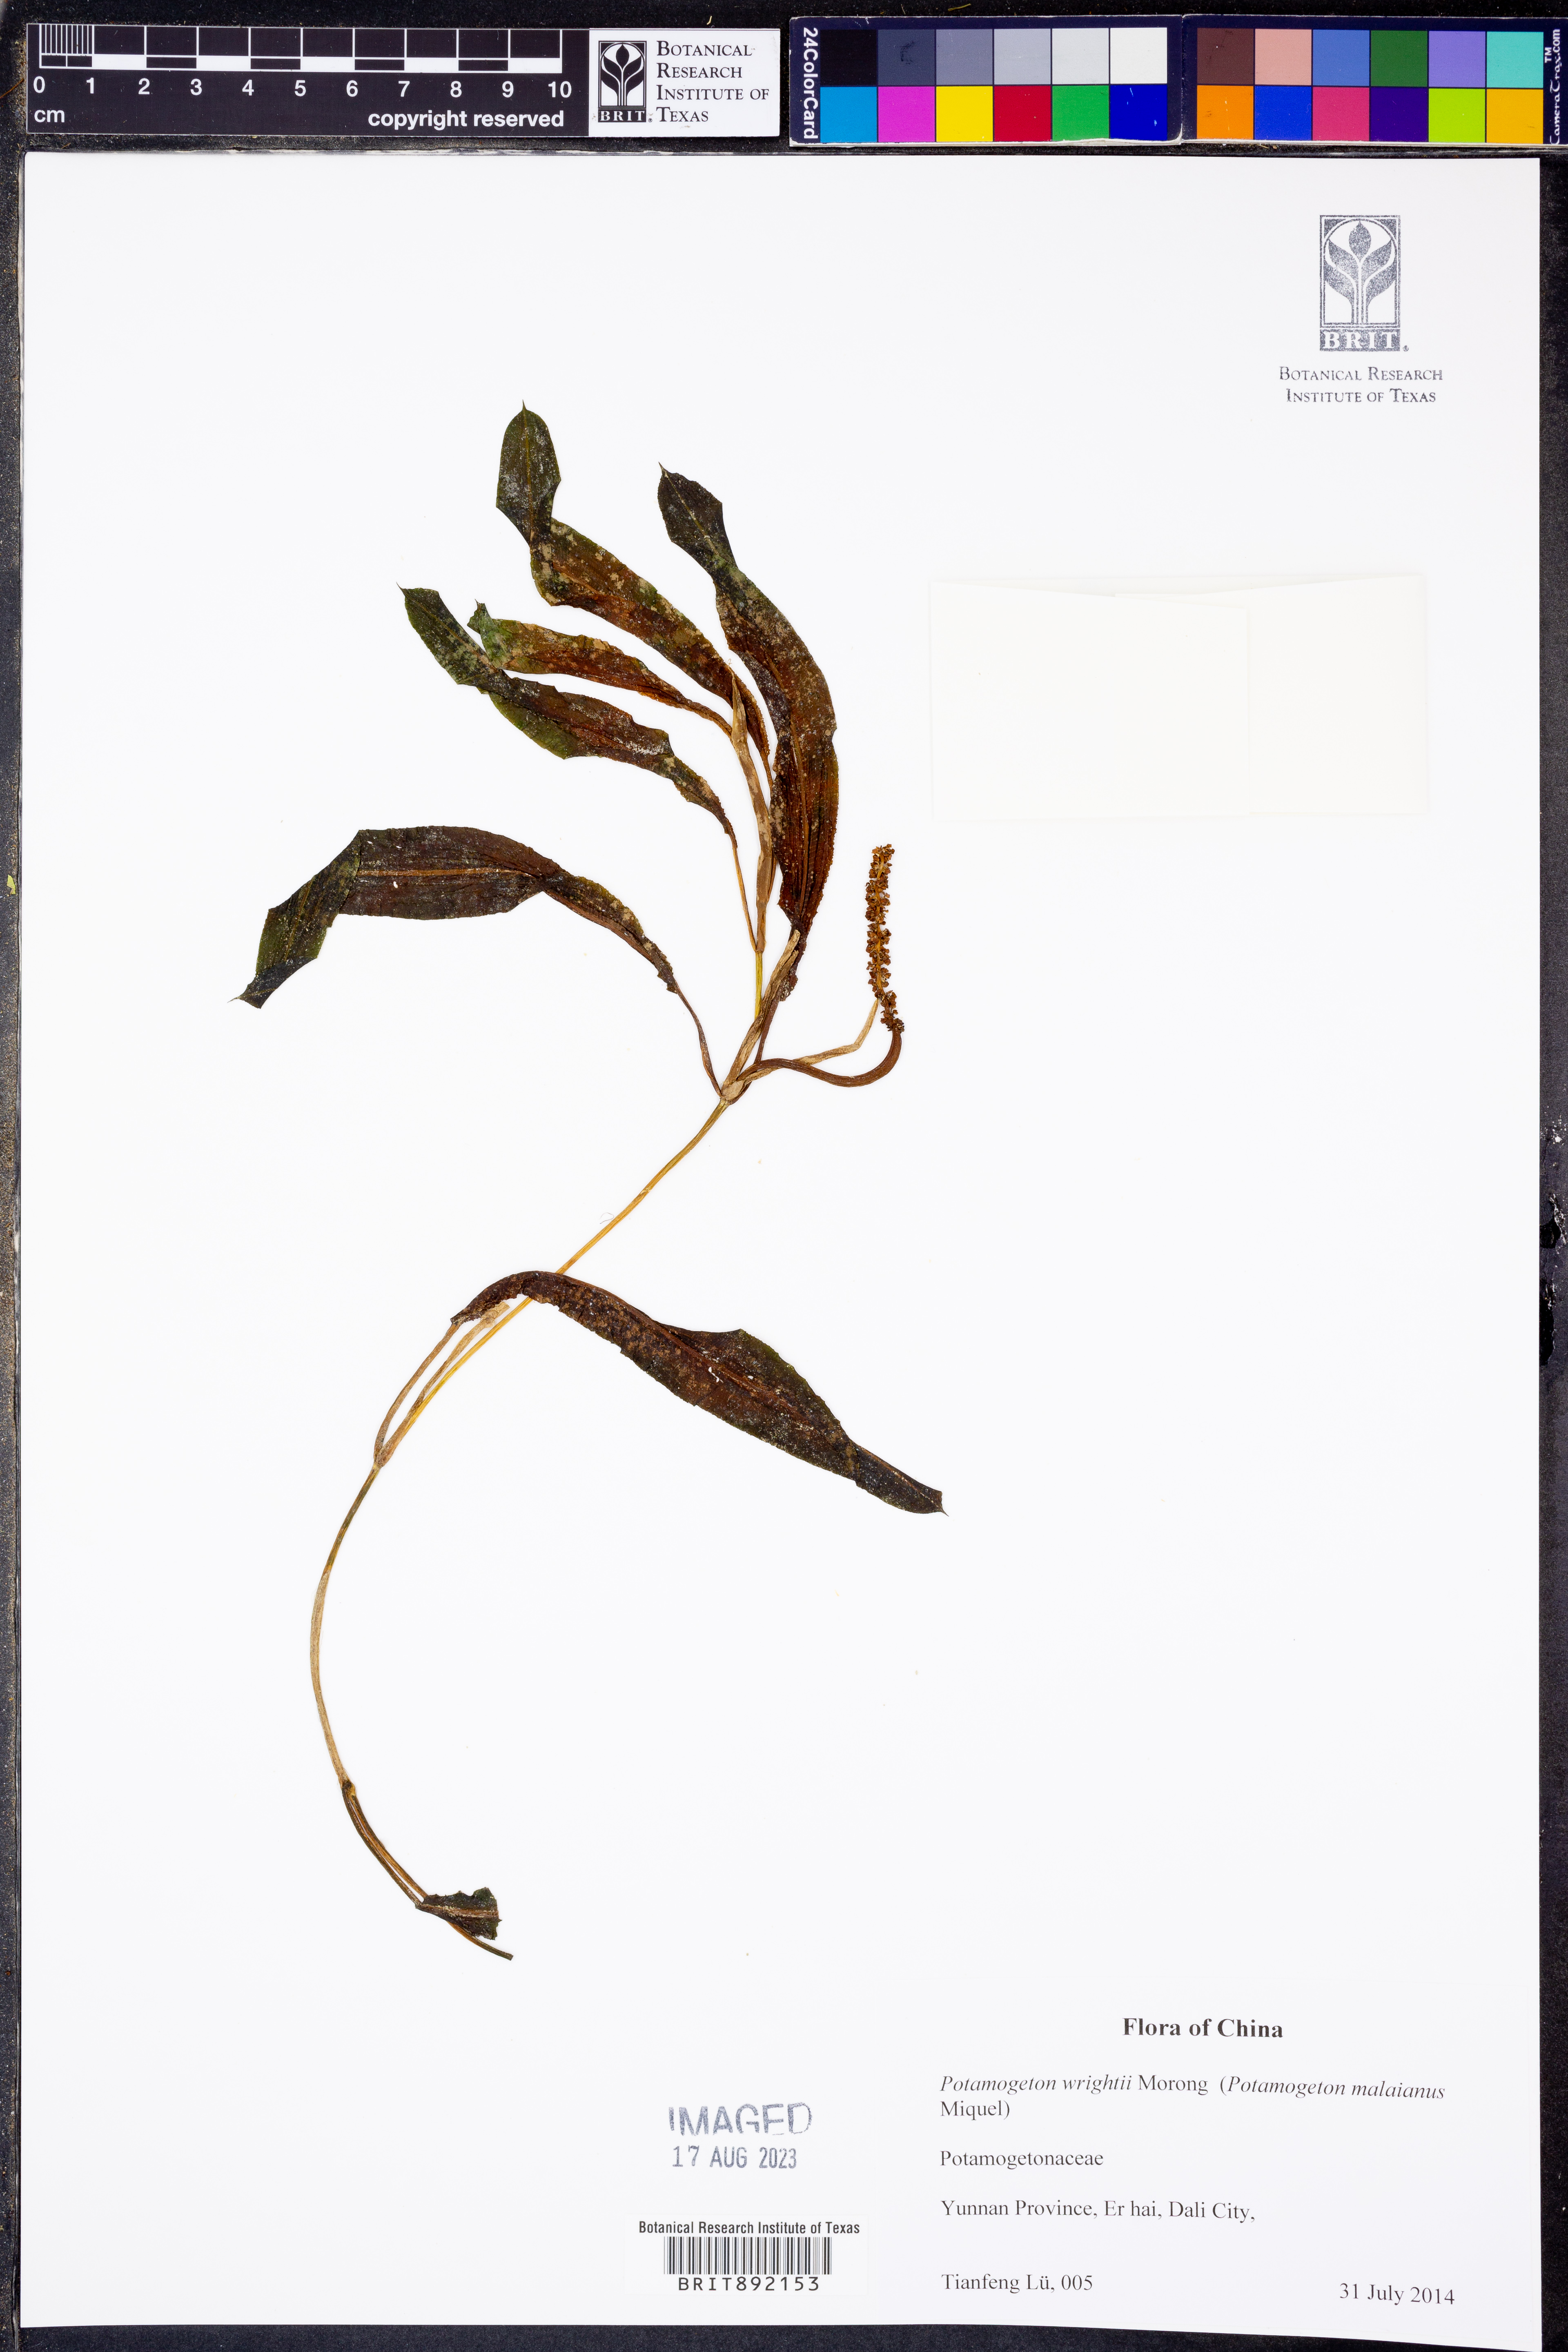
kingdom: Plantae
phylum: Tracheophyta
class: Liliopsida
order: Alismatales
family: Potamogetonaceae
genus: Potamogeton
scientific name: Potamogeton wrightii
